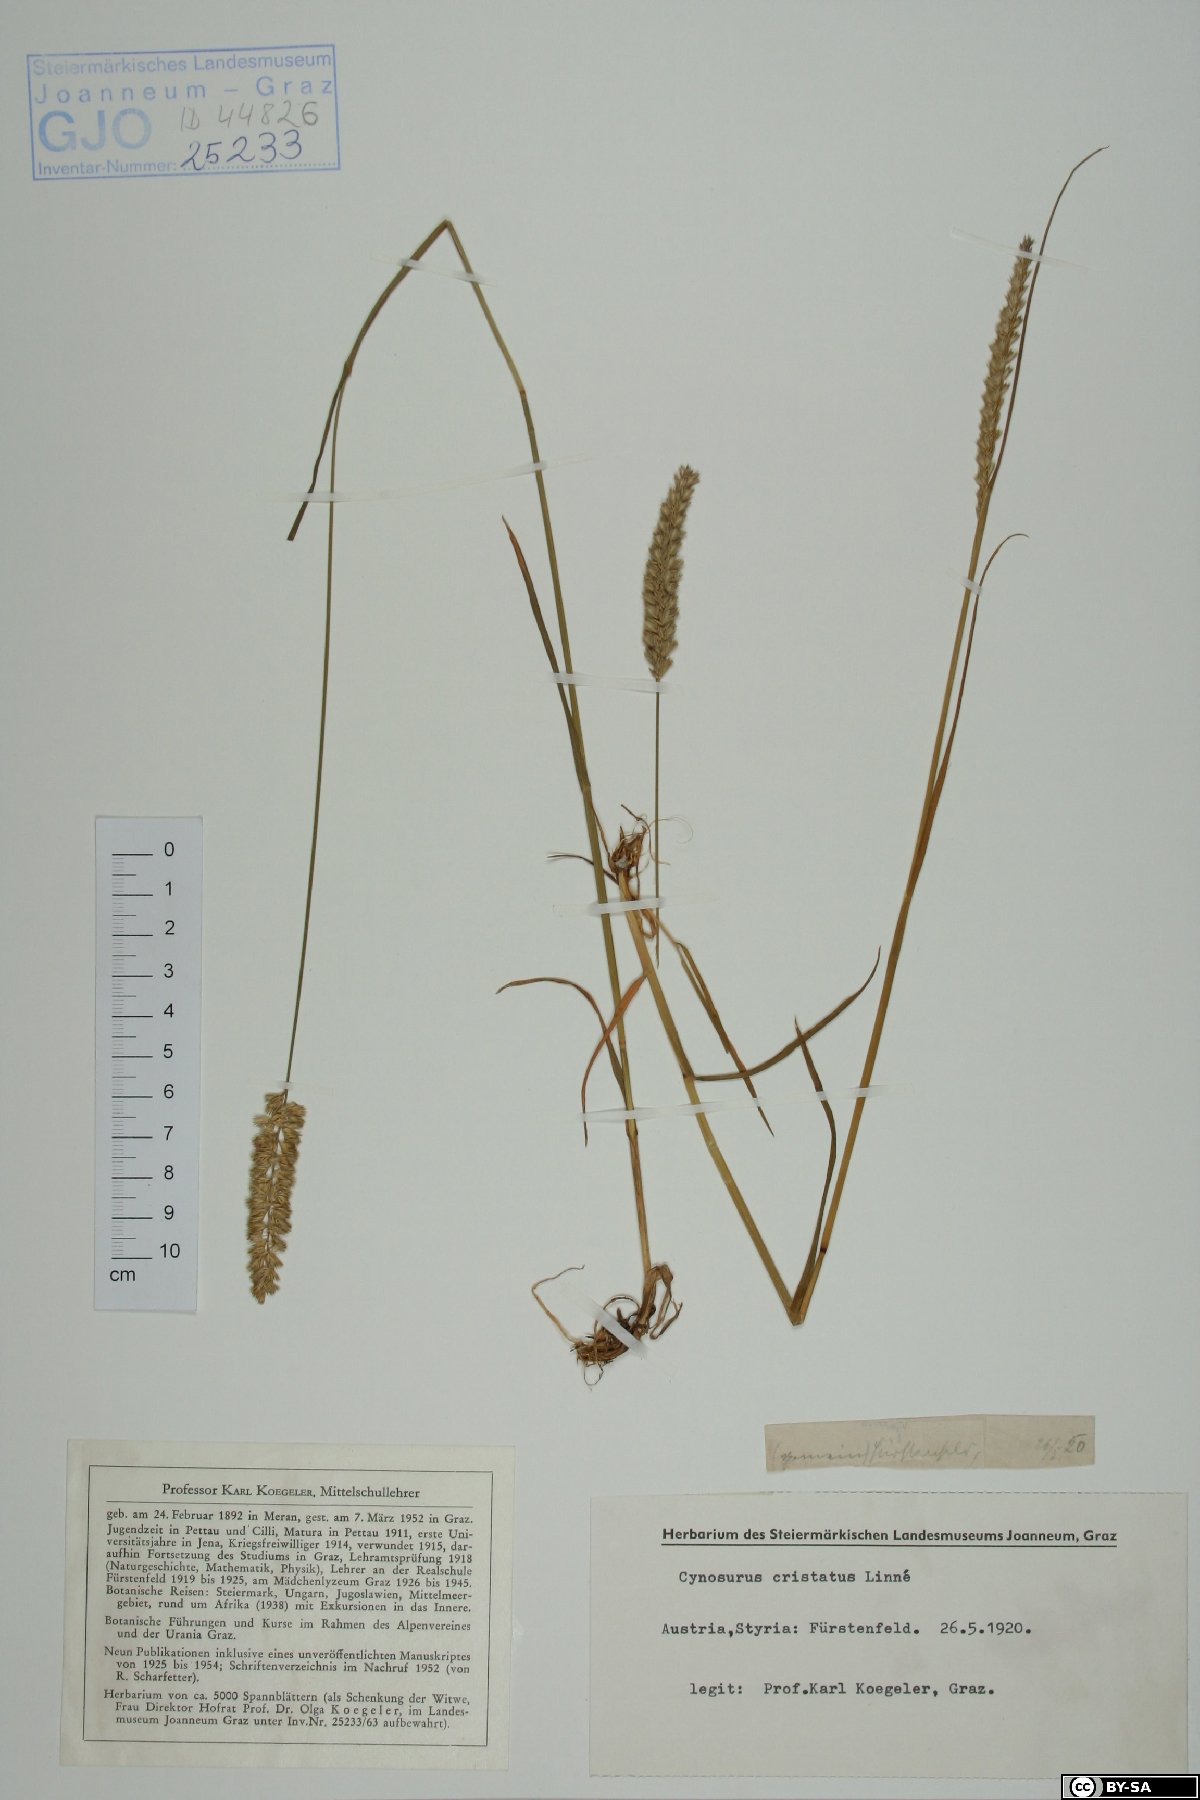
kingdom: Plantae
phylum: Tracheophyta
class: Liliopsida
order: Poales
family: Poaceae
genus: Cynosurus
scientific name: Cynosurus cristatus
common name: Crested dog's-tail
